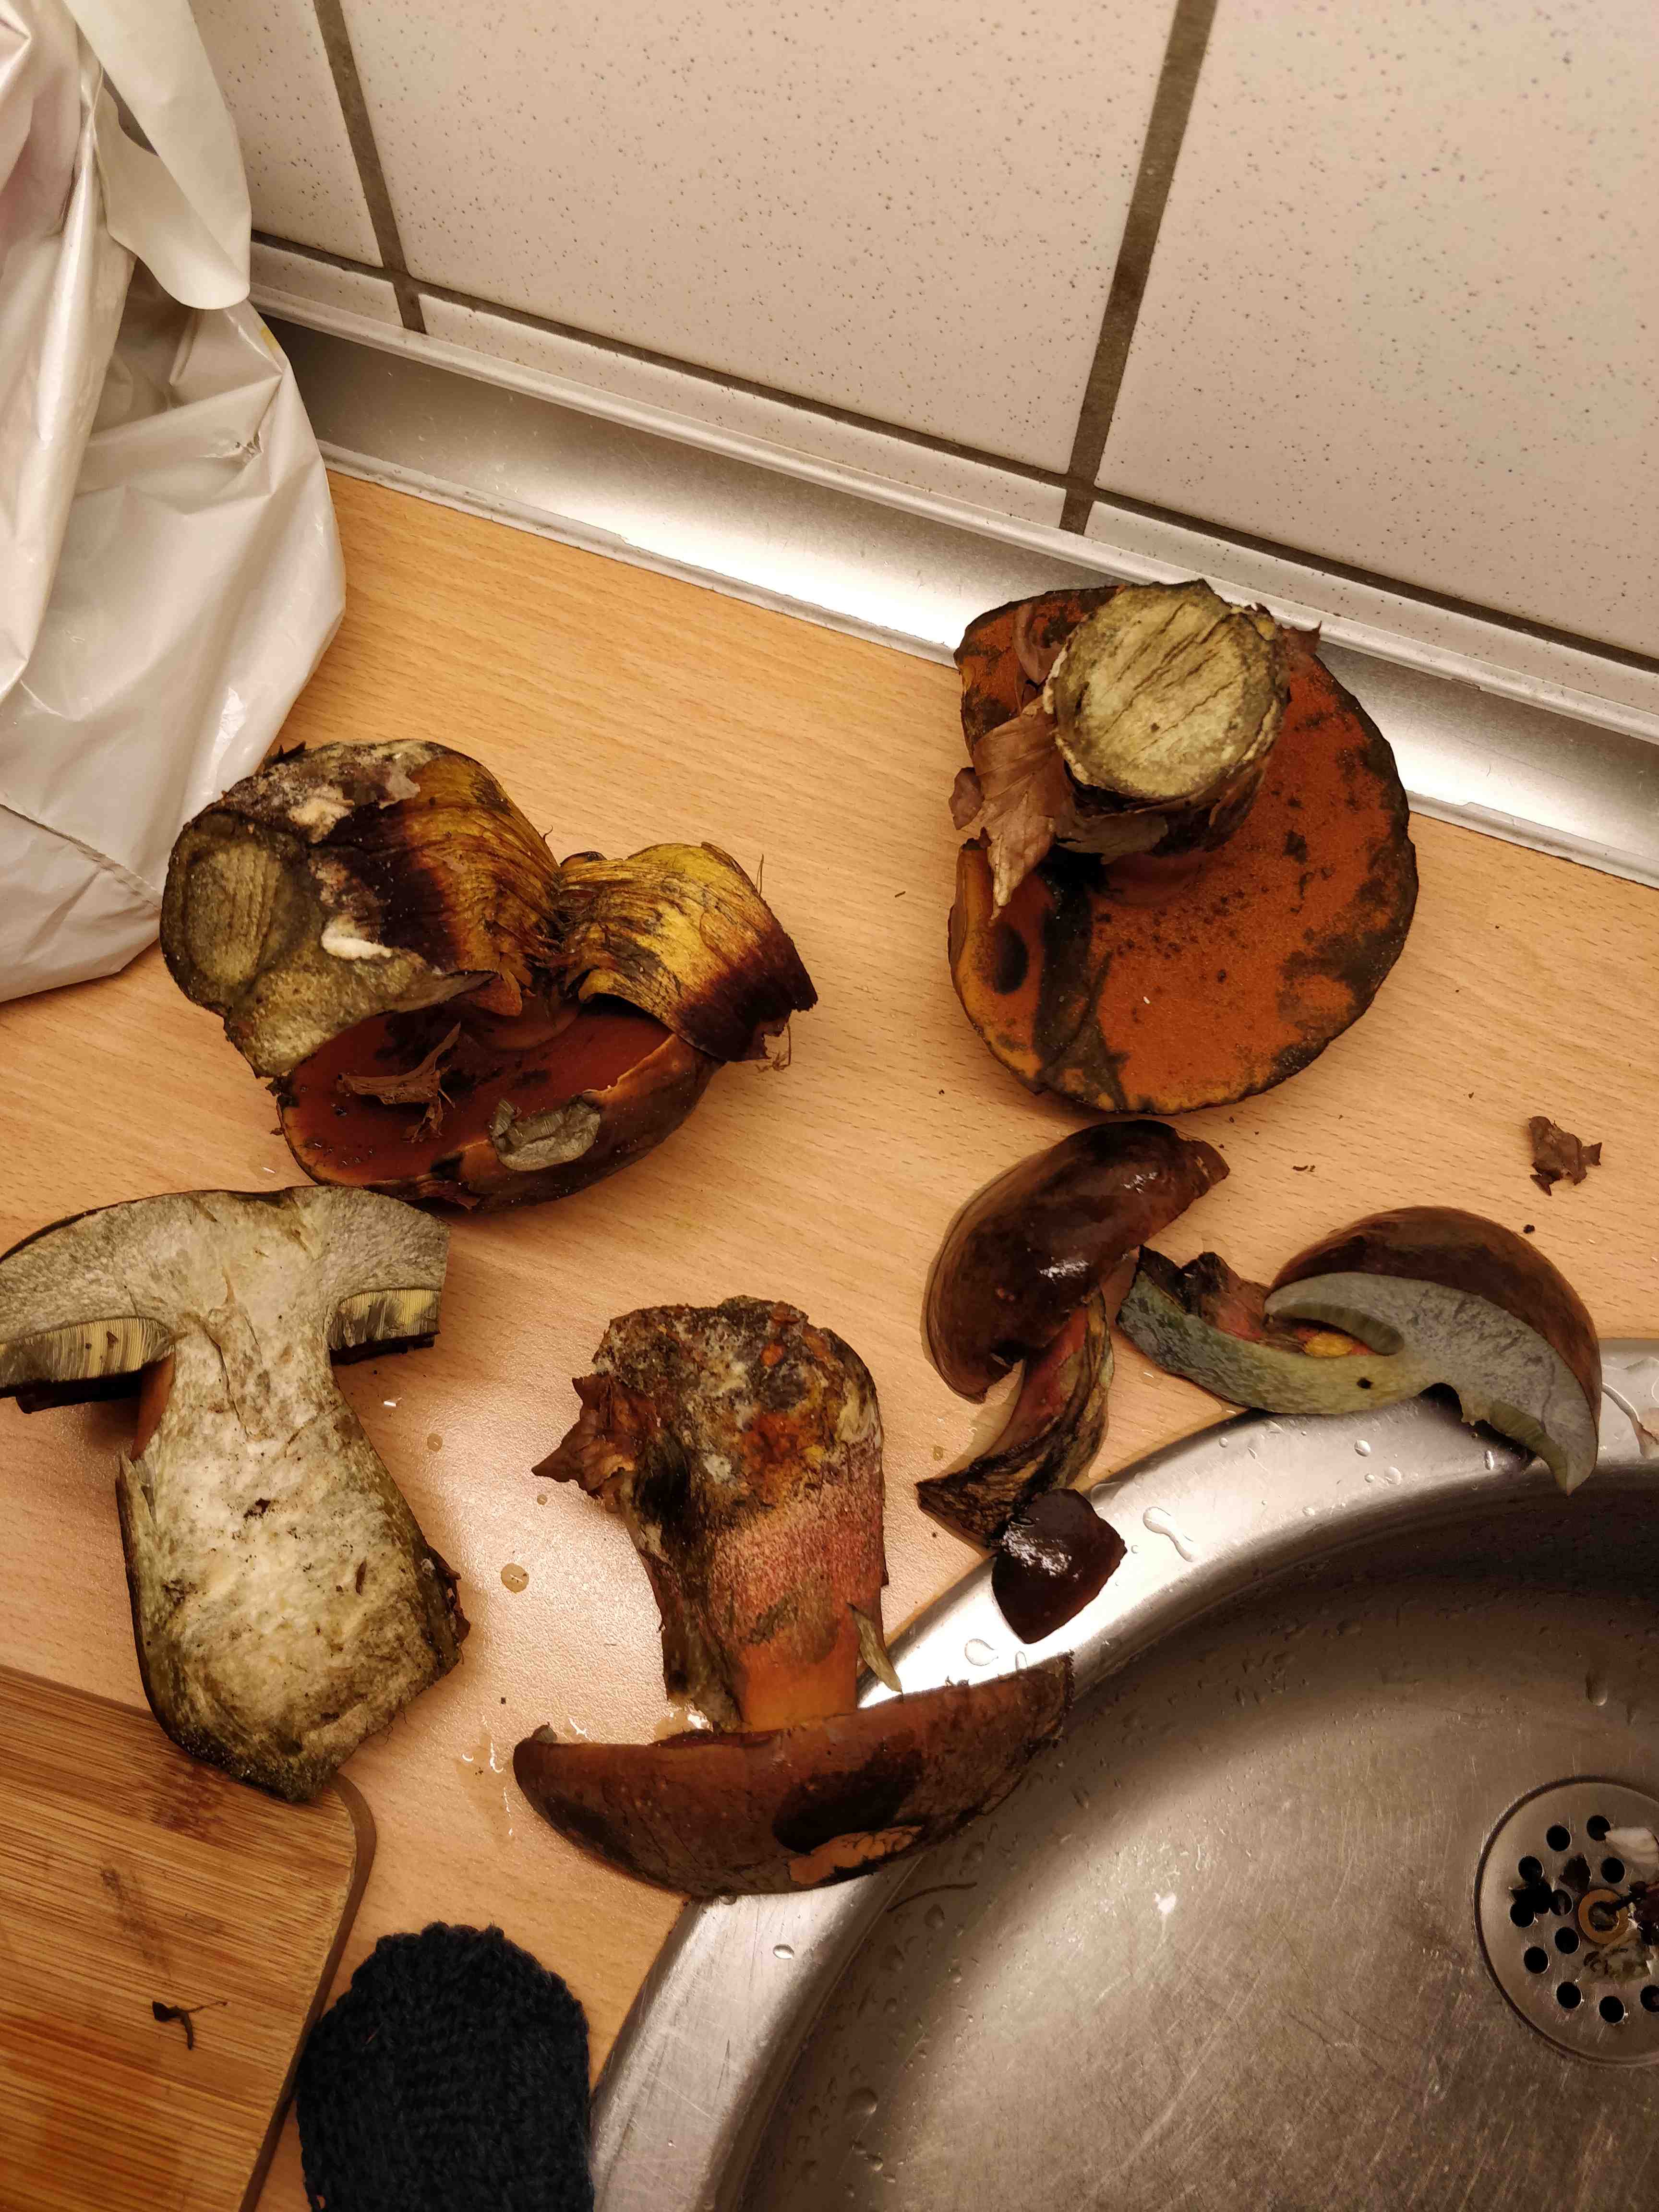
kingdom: Fungi
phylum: Basidiomycota
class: Agaricomycetes
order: Boletales
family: Boletaceae
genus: Neoboletus
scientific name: Neoboletus erythropus
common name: punktstokket indigorørhat
